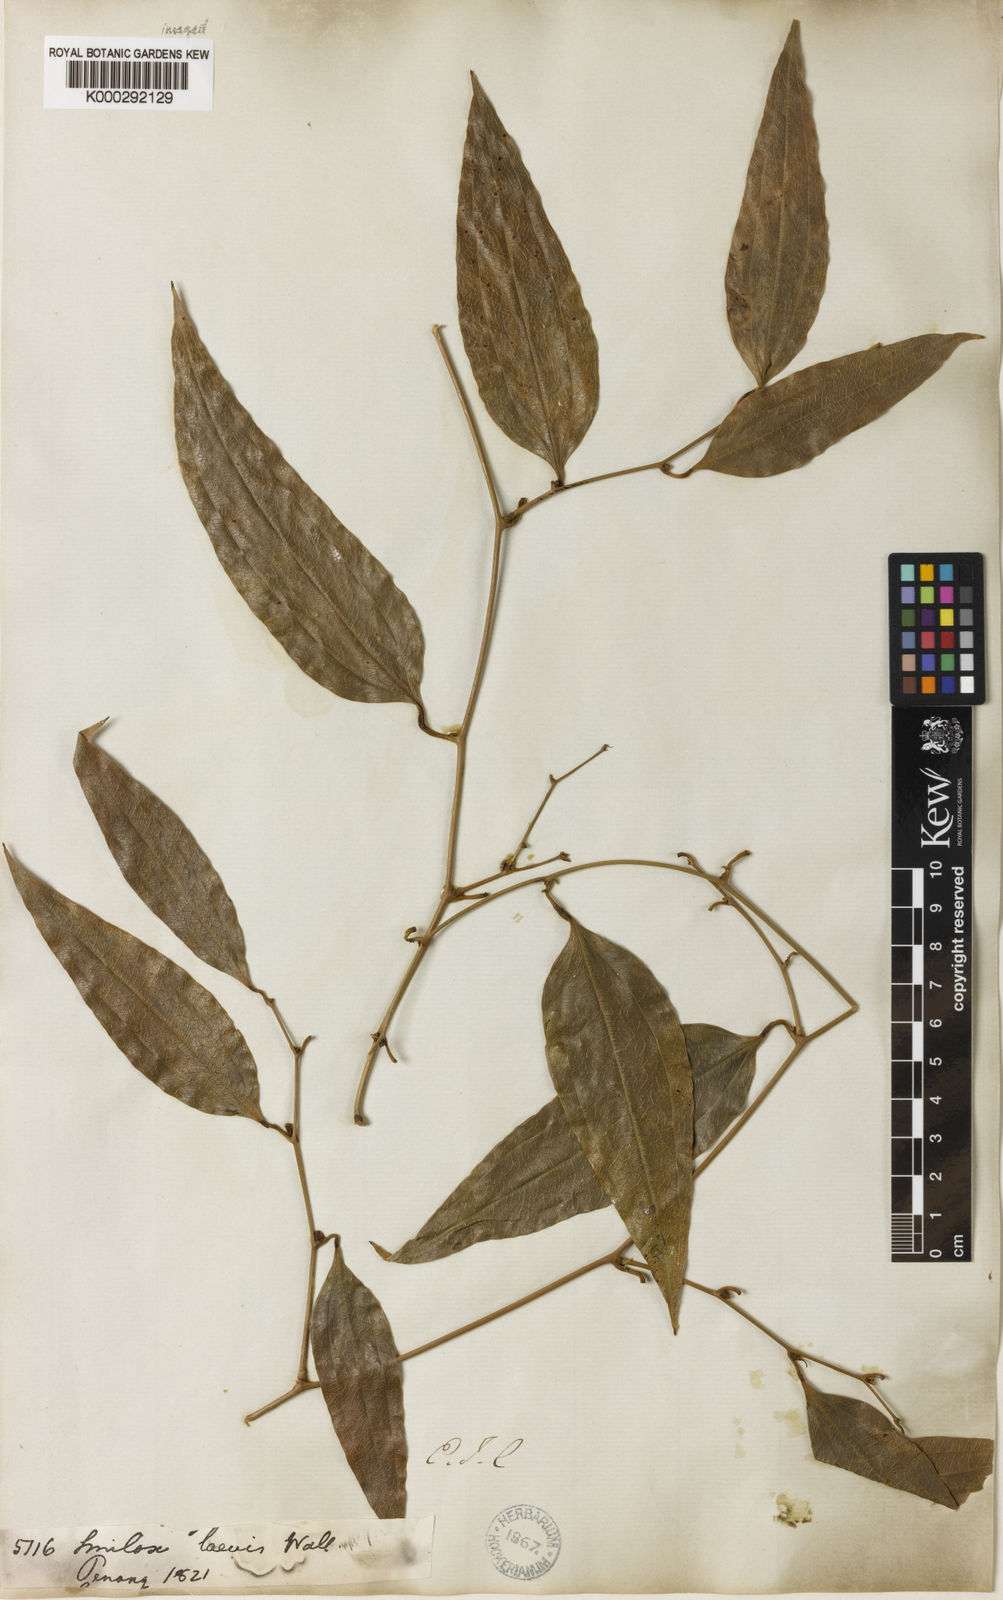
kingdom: Plantae
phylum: Tracheophyta
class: Liliopsida
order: Liliales
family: Smilacaceae
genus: Smilax
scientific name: Smilax laevis
